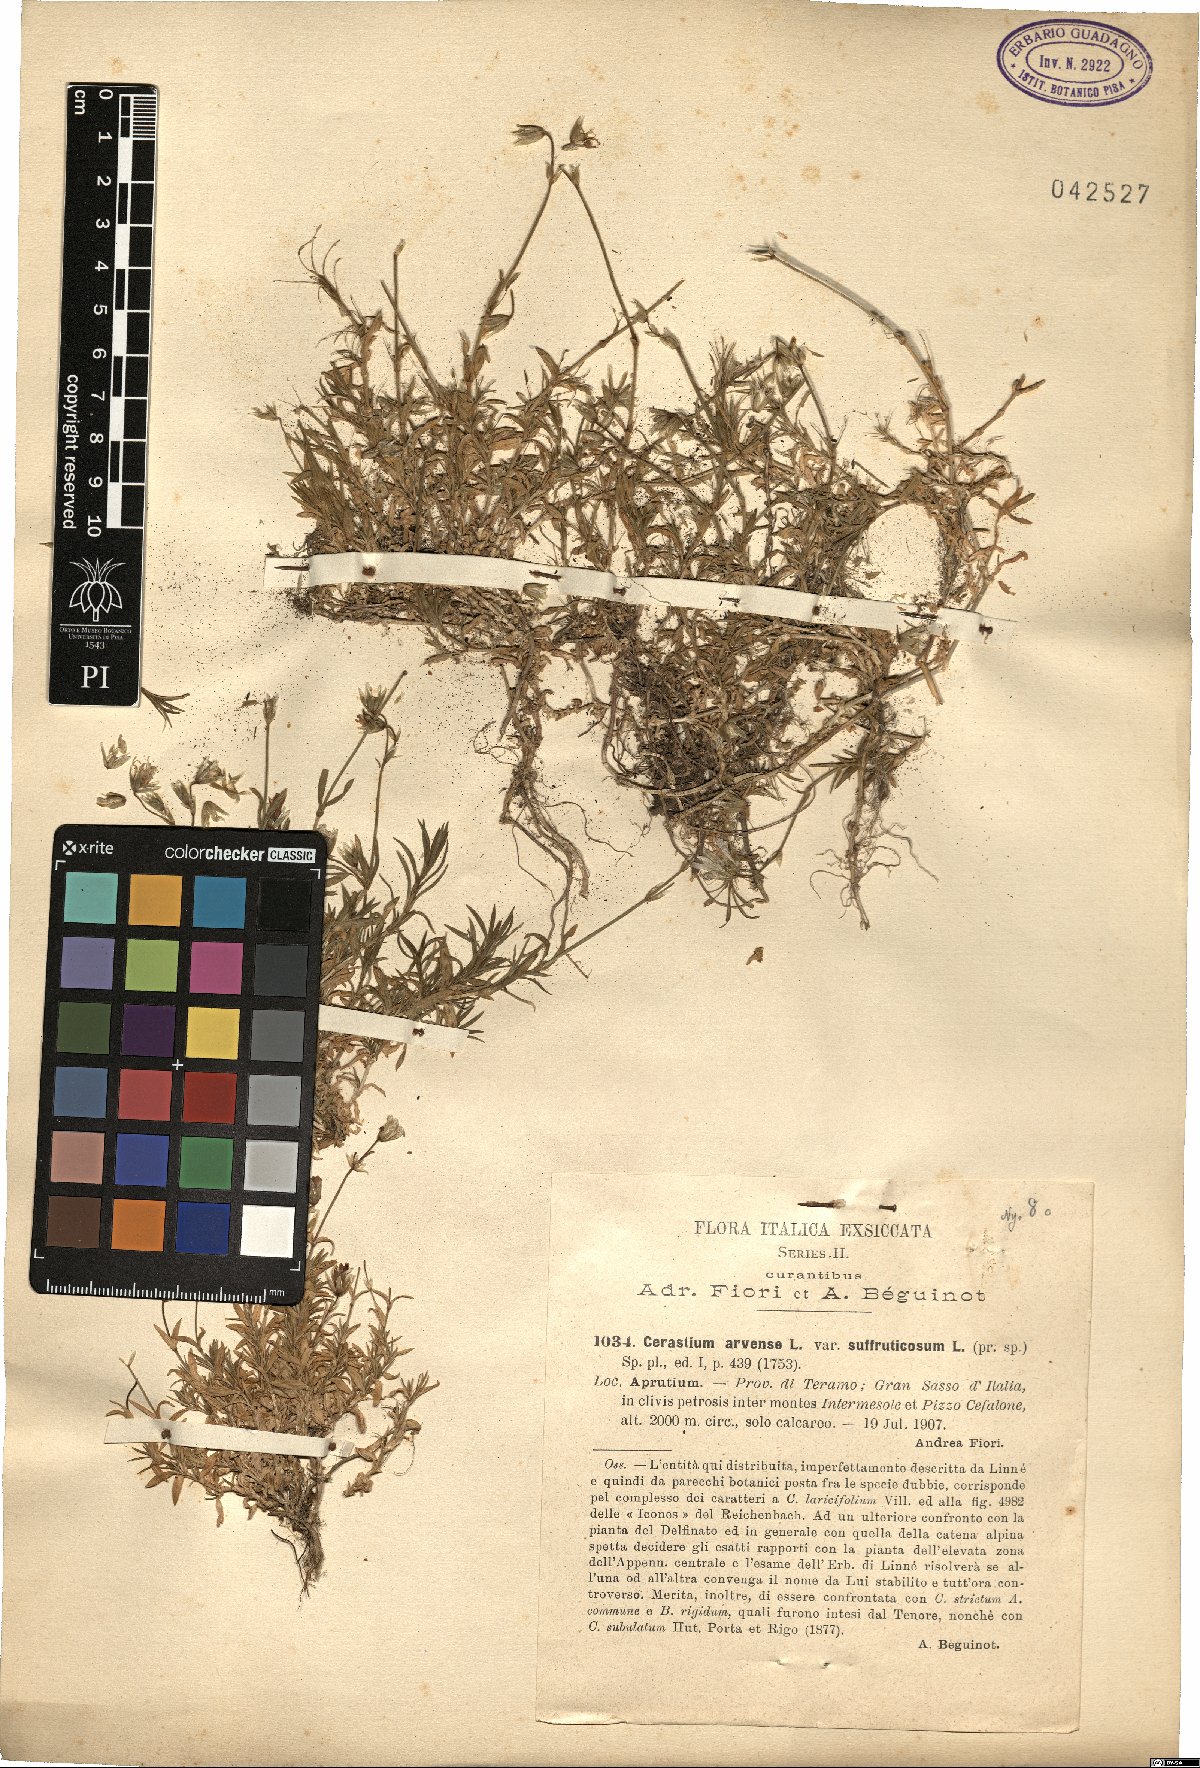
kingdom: Plantae
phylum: Tracheophyta
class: Magnoliopsida
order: Caryophyllales
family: Caryophyllaceae
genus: Cerastium
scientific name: Cerastium arvense
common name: Field mouse-ear
